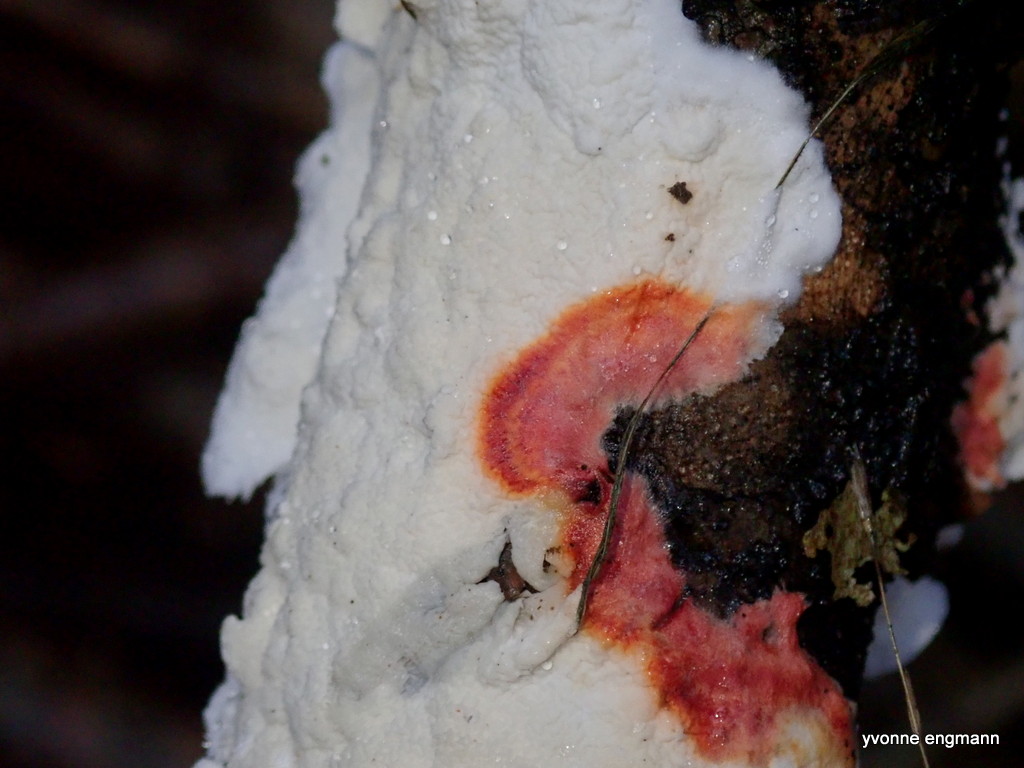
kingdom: Fungi
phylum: Basidiomycota
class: Agaricomycetes
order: Polyporales
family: Irpicaceae
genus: Byssomerulius
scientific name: Byssomerulius corium
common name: læder-åresvamp
